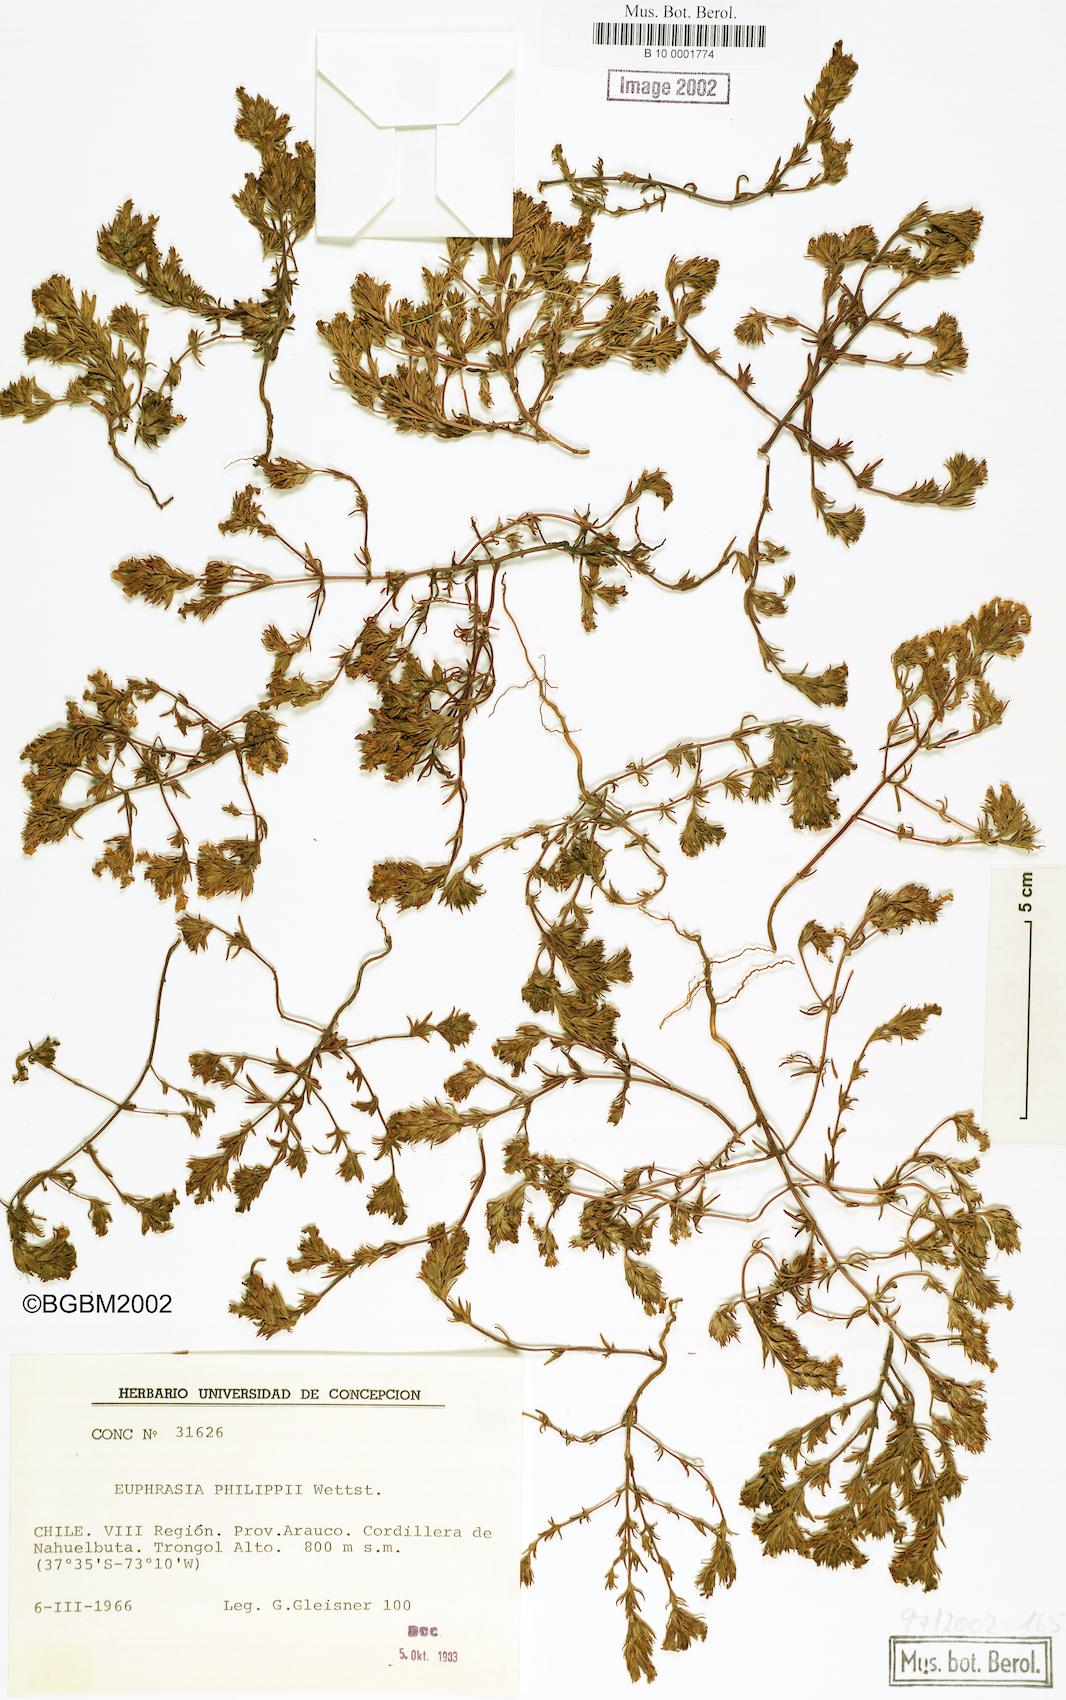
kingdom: Plantae
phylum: Tracheophyta
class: Magnoliopsida
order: Lamiales
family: Orobanchaceae
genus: Euphrasia
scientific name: Euphrasia philippii
